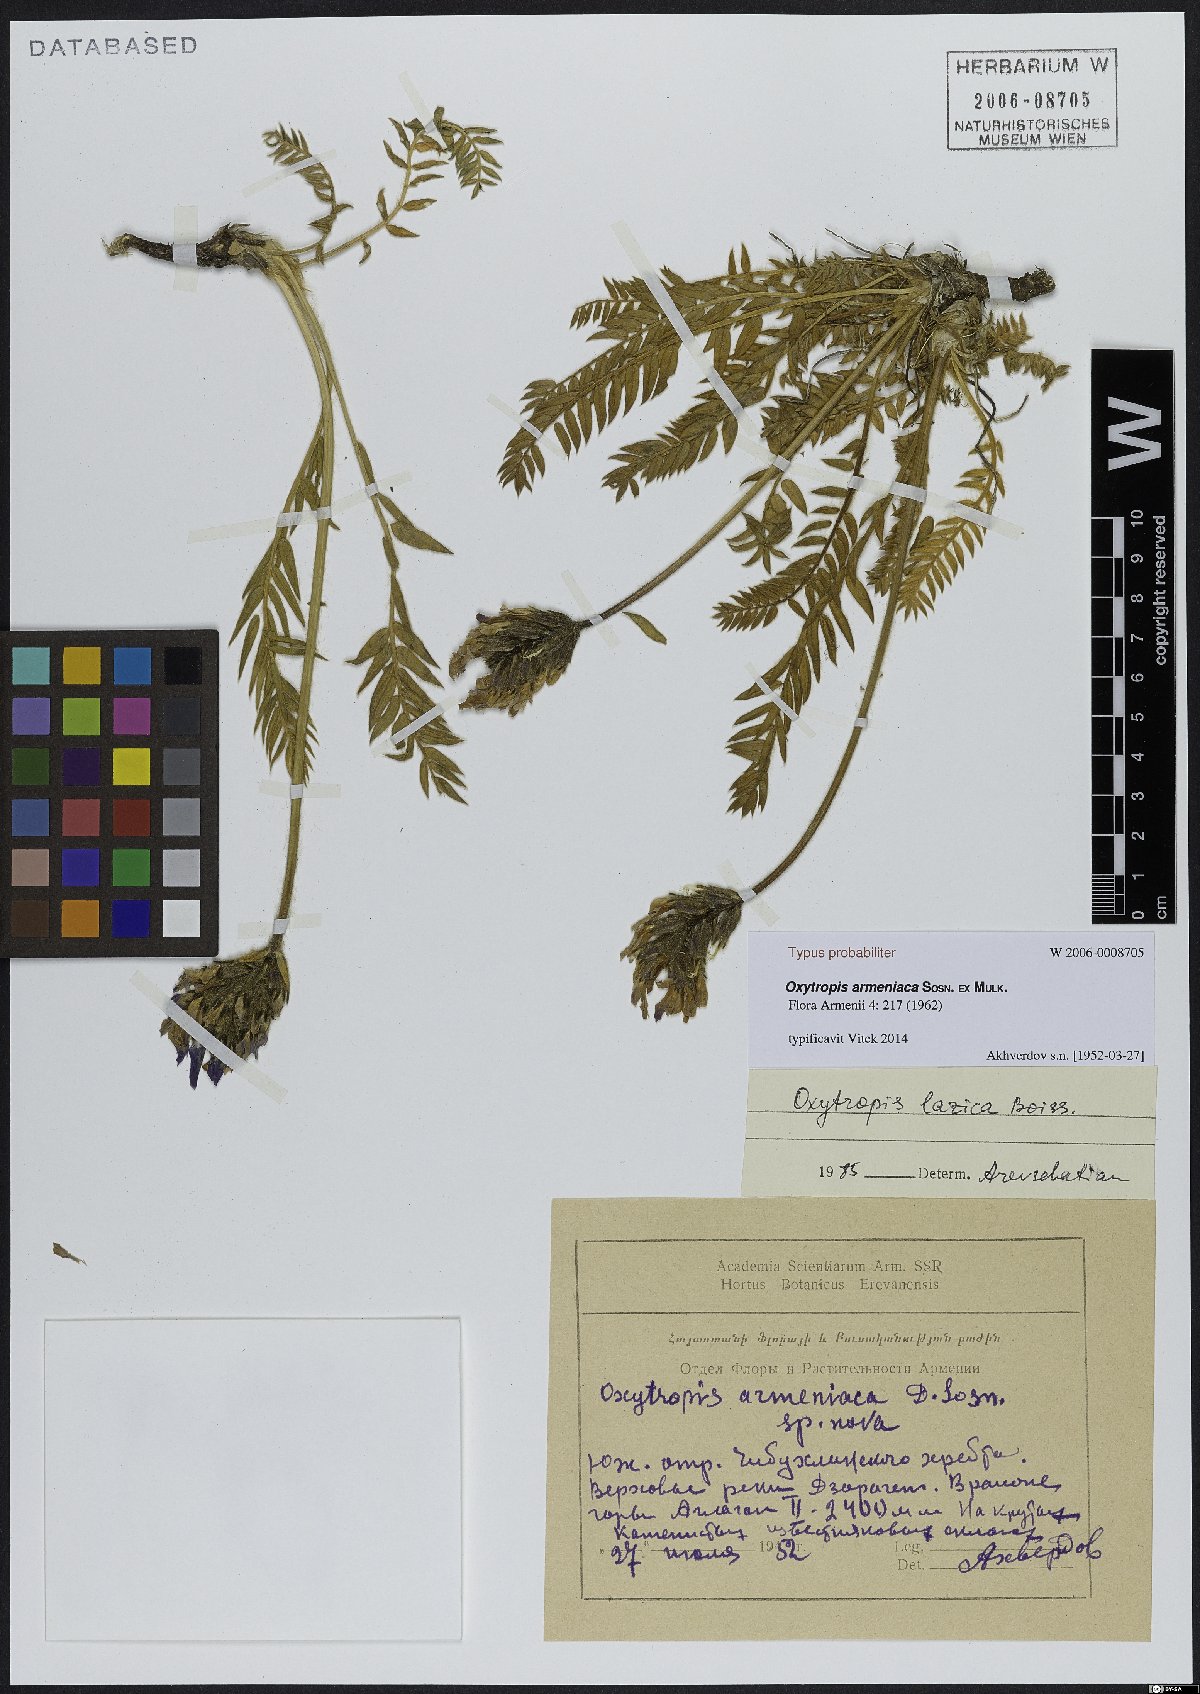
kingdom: Plantae
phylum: Tracheophyta
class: Magnoliopsida
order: Fabales
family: Fabaceae
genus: Oxytropis
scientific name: Oxytropis lazica
